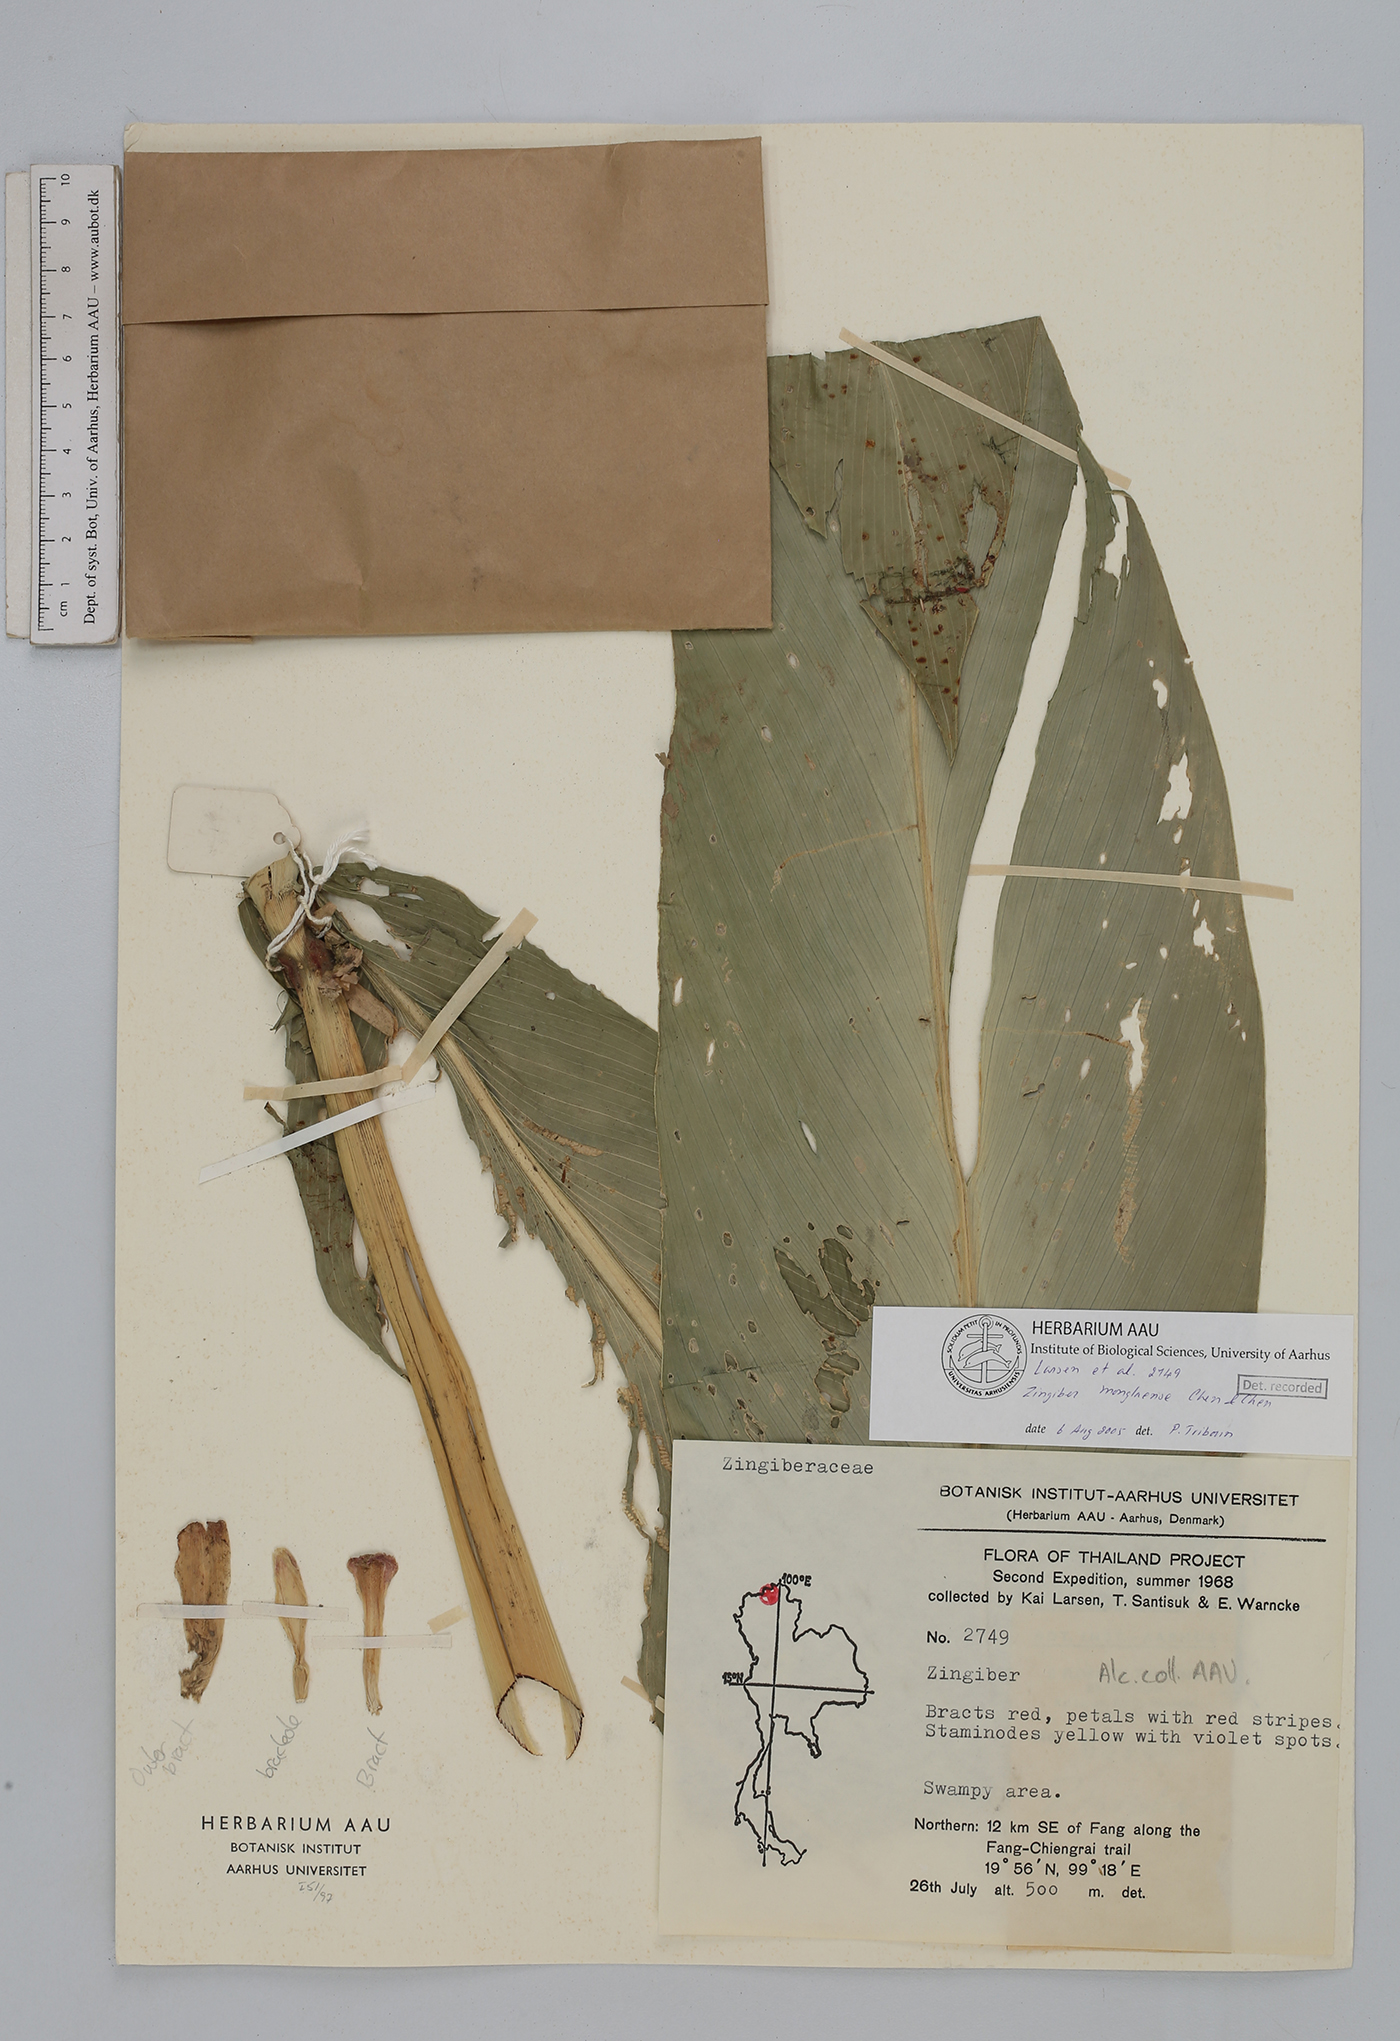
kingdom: Plantae
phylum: Tracheophyta
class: Liliopsida
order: Zingiberales
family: Zingiberaceae
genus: Zingiber
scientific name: Zingiber monglaense
